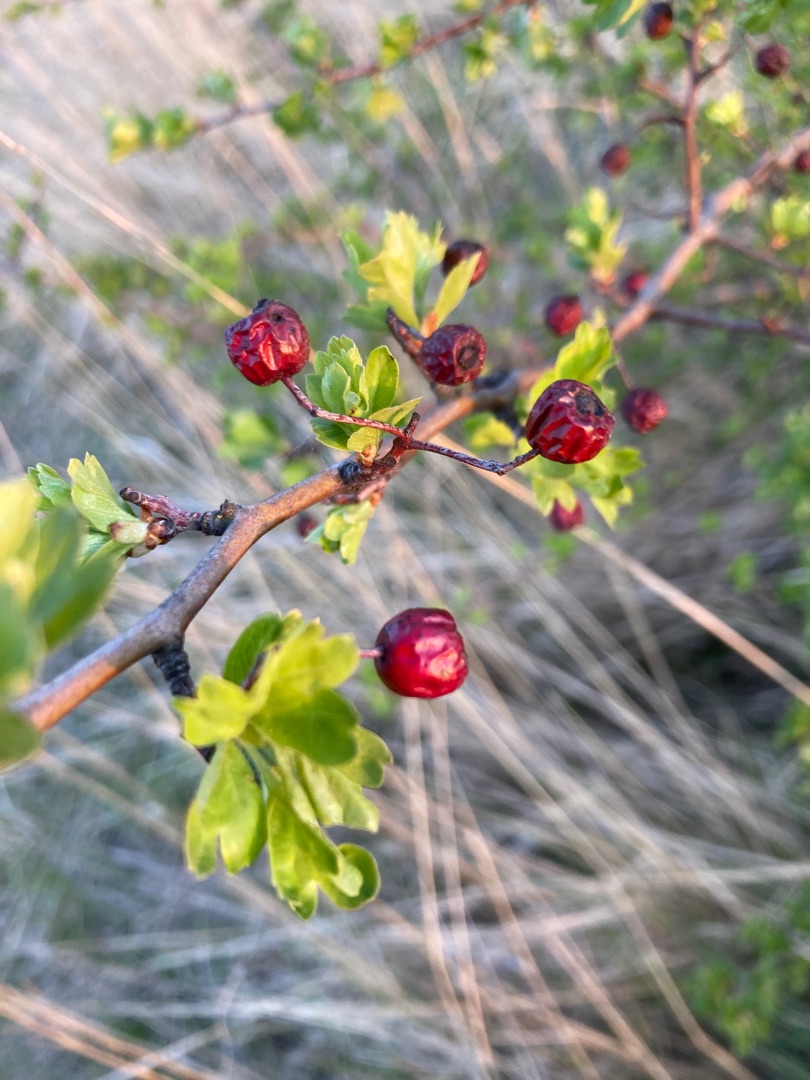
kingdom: Plantae
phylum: Tracheophyta
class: Magnoliopsida
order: Rosales
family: Rosaceae
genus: Crataegus
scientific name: Crataegus monogyna
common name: Engriflet hvidtjørn
